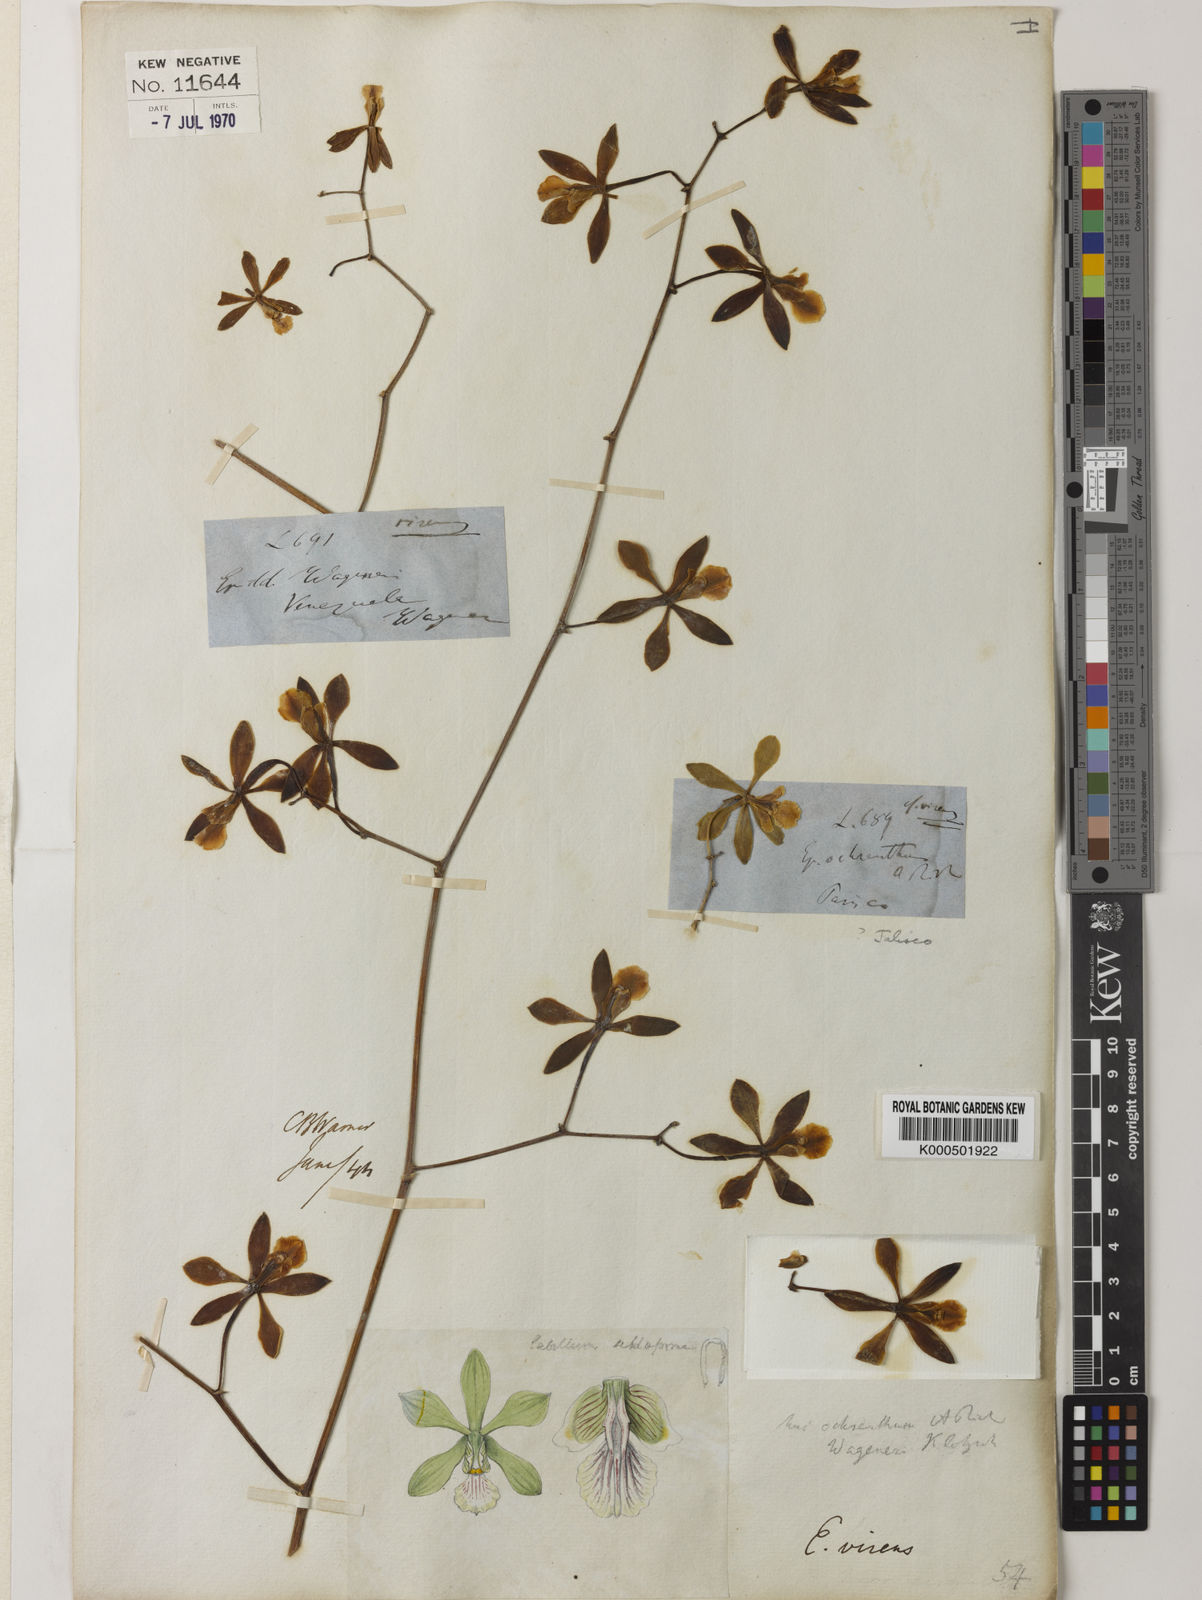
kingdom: Plantae
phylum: Tracheophyta
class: Liliopsida
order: Asparagales
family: Orchidaceae
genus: Encyclia
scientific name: Encyclia diurna
